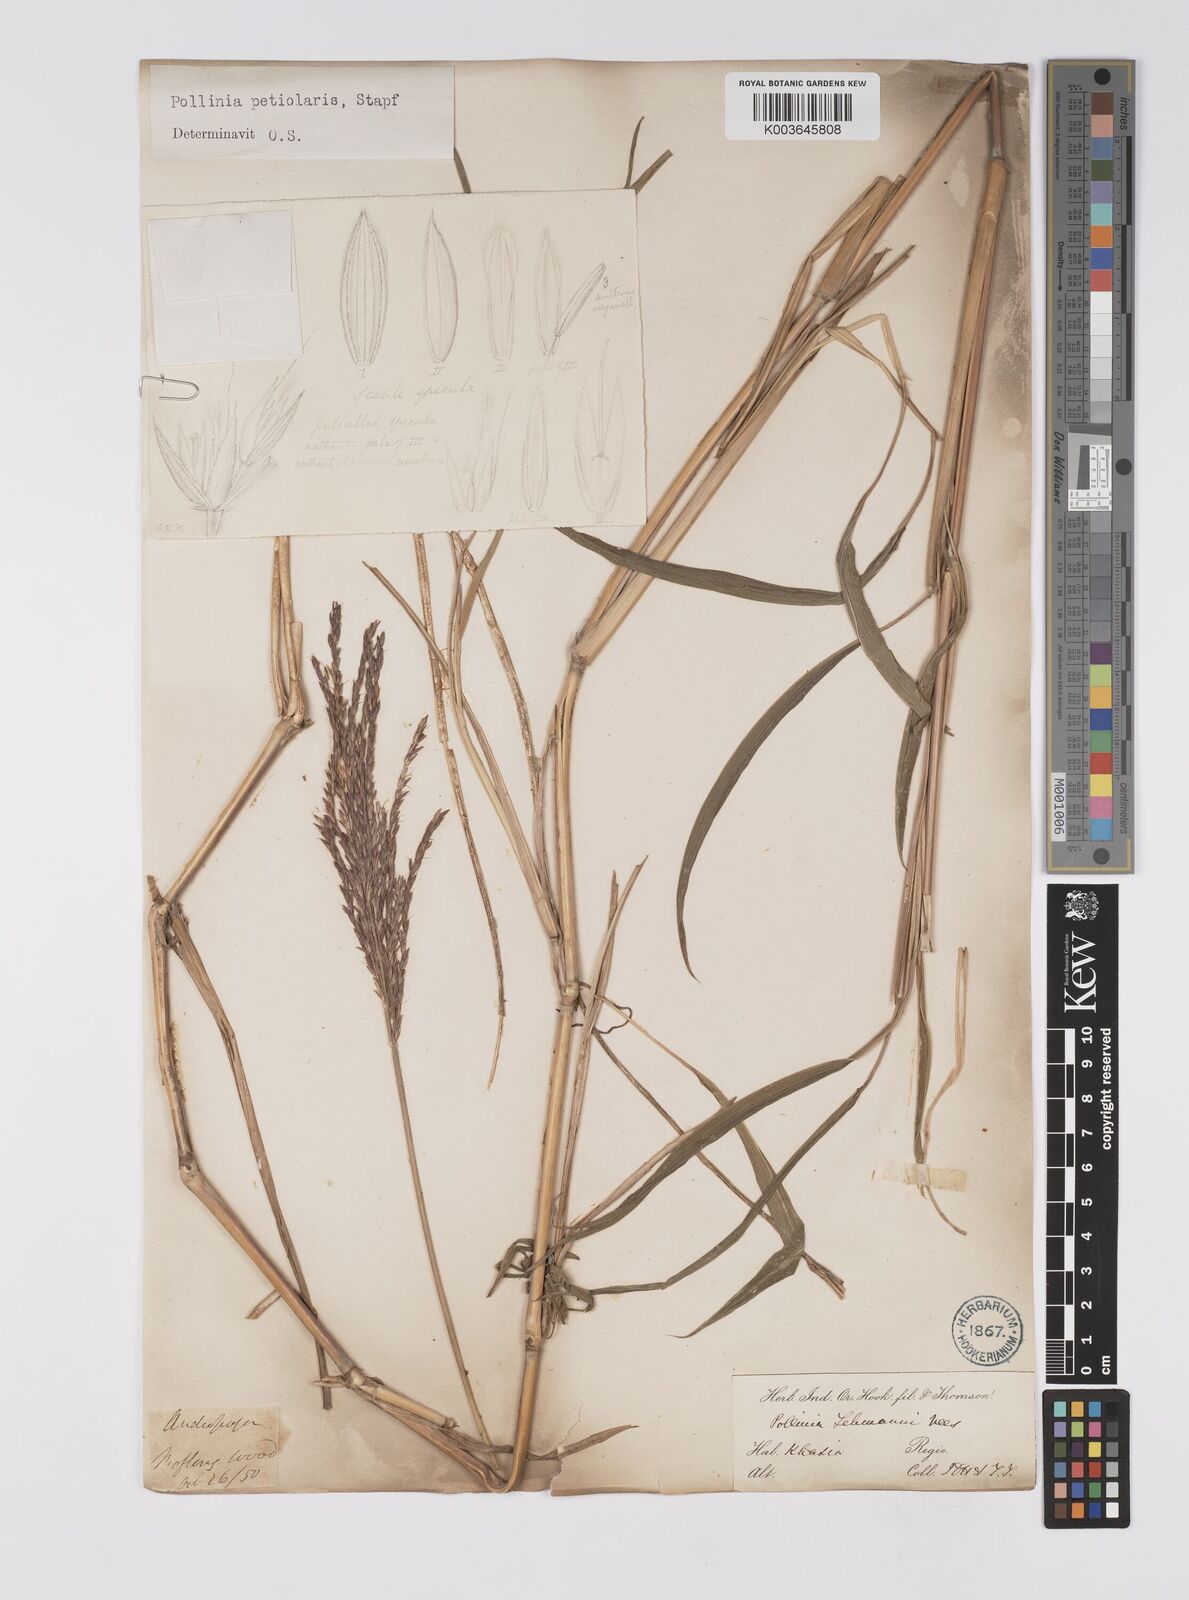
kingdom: Plantae
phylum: Tracheophyta
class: Liliopsida
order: Poales
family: Poaceae
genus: Microstegium
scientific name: Microstegium petiolare
